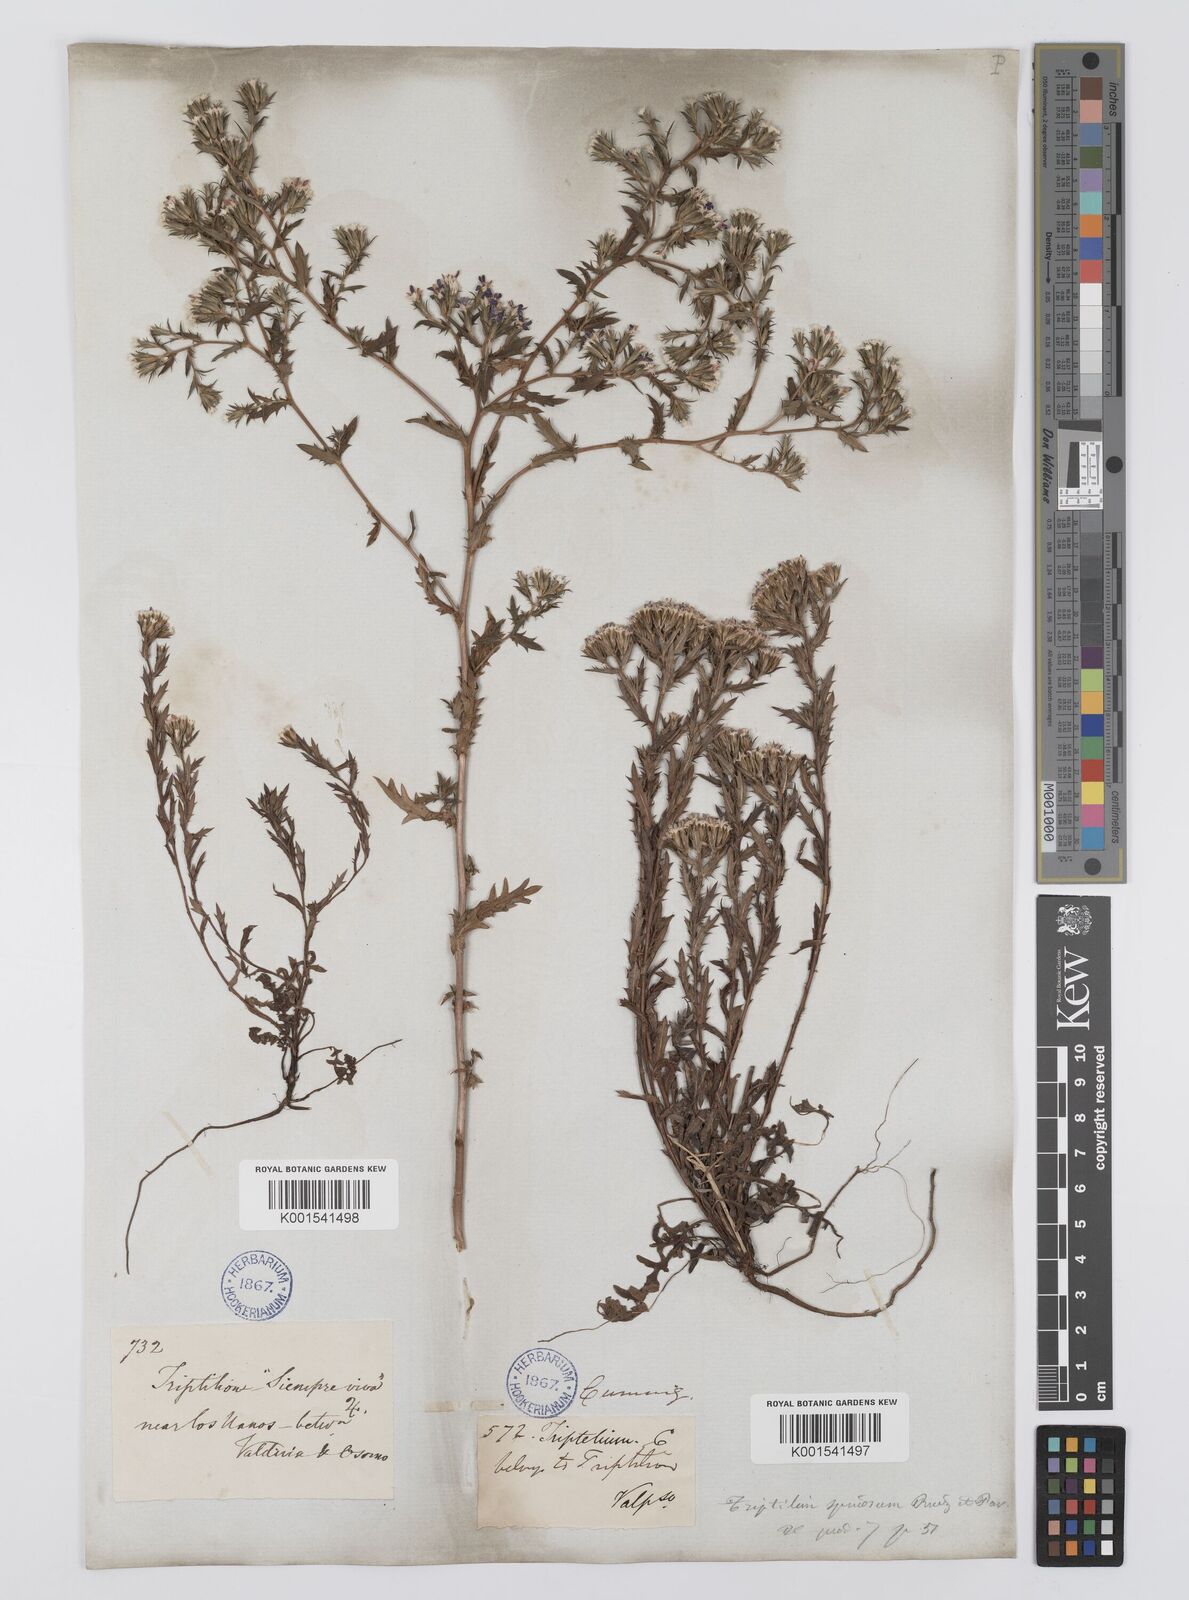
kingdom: Plantae
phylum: Tracheophyta
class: Magnoliopsida
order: Asterales
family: Asteraceae
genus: Triptilion
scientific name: Triptilion spinosum
